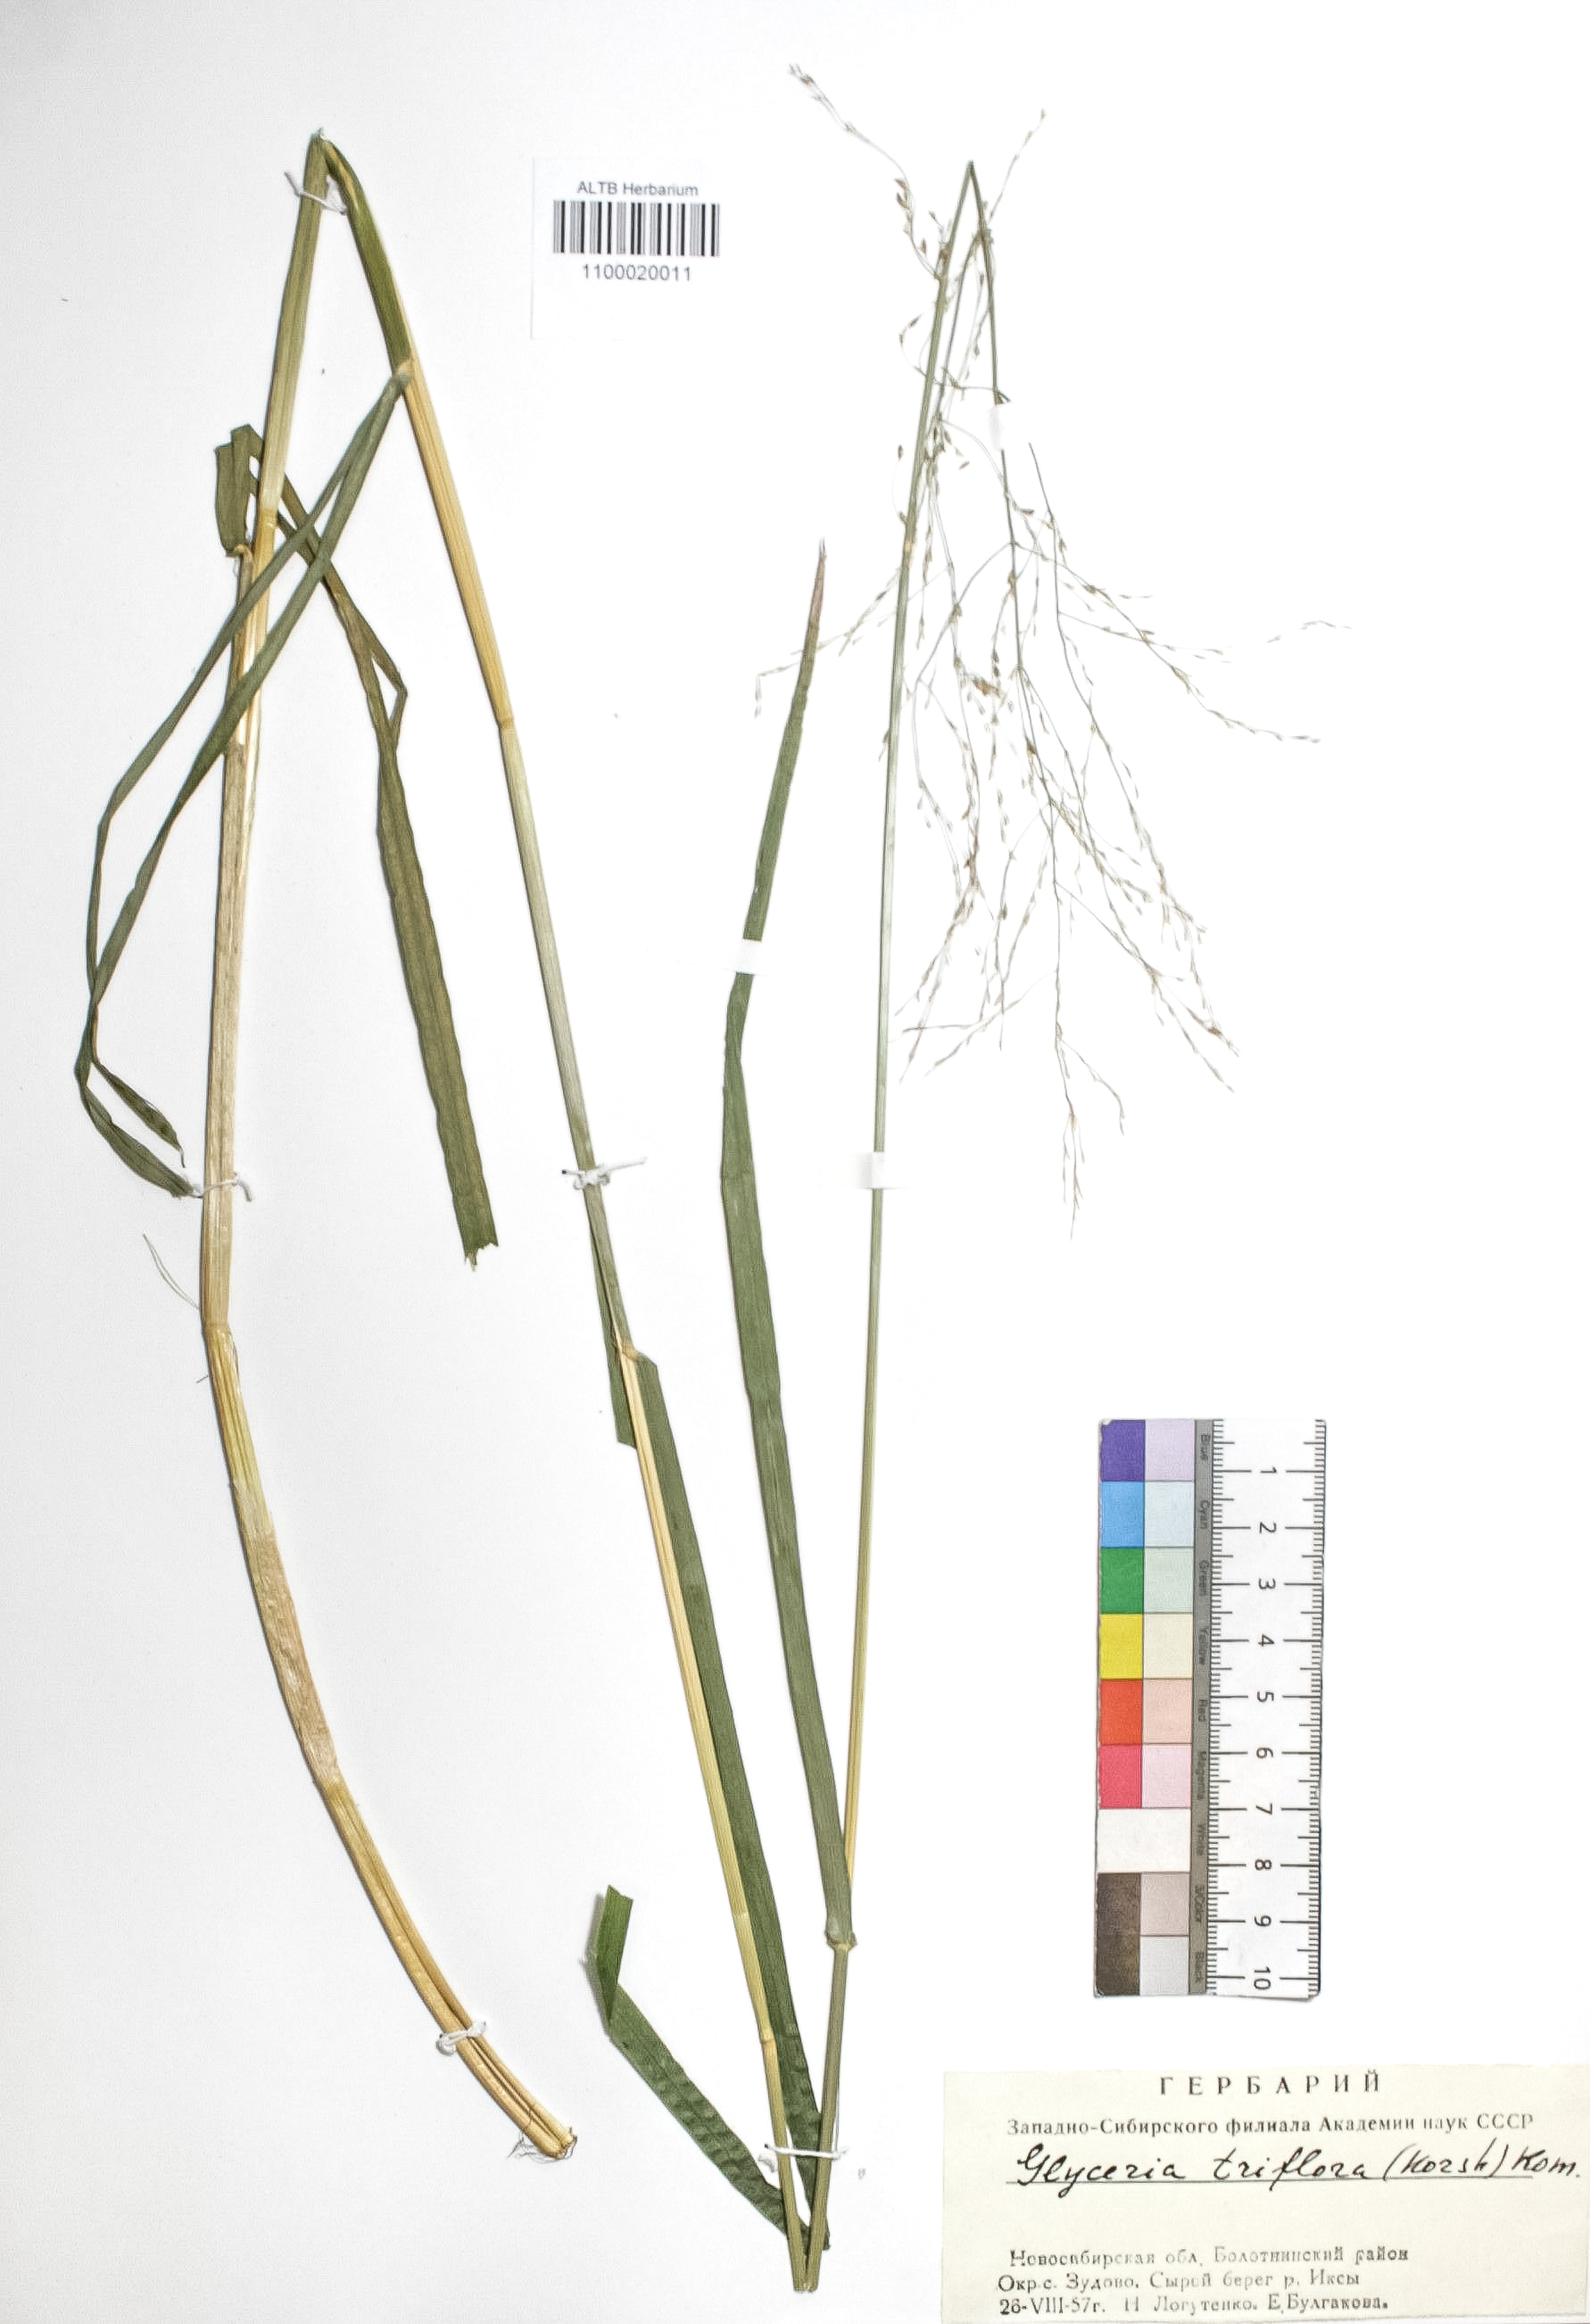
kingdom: Plantae
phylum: Tracheophyta
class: Liliopsida
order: Poales
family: Poaceae
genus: Glyceria
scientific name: Glyceria lithuanica
